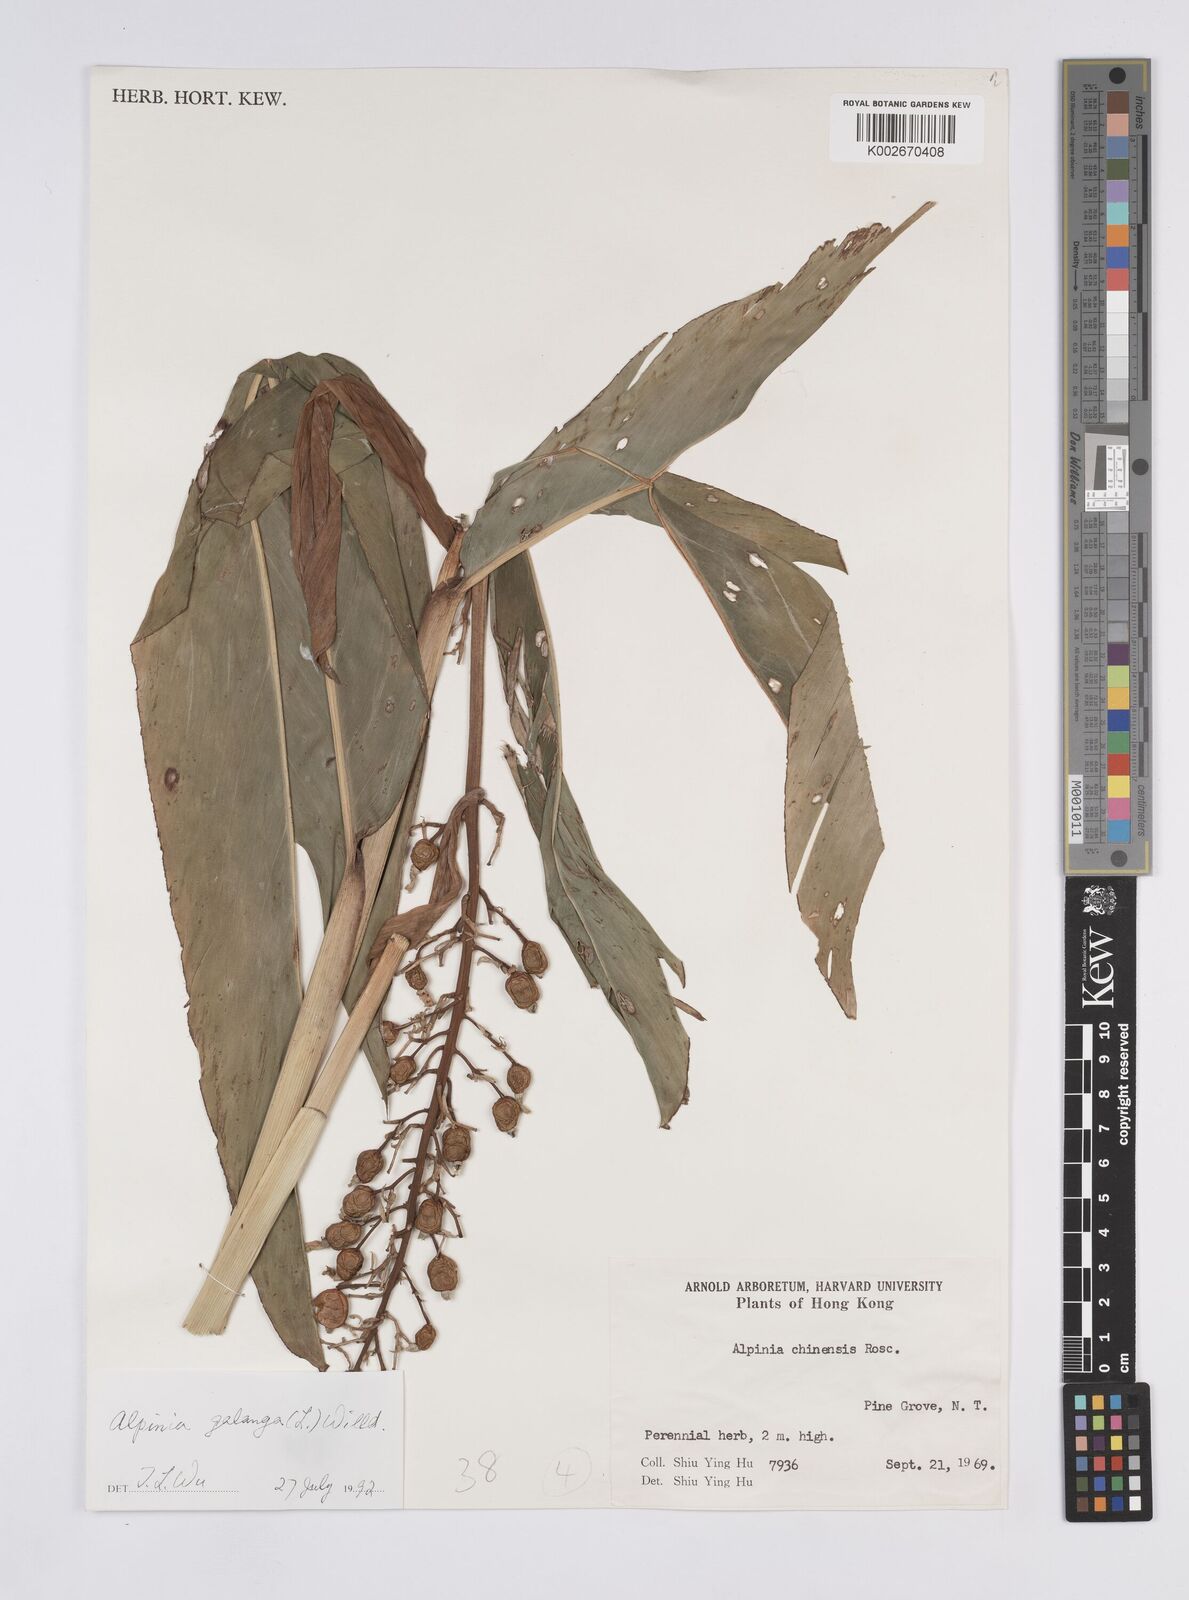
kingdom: Plantae
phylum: Tracheophyta
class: Liliopsida
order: Zingiberales
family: Zingiberaceae
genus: Alpinia
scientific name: Alpinia galanga
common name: Siamese-ginger
